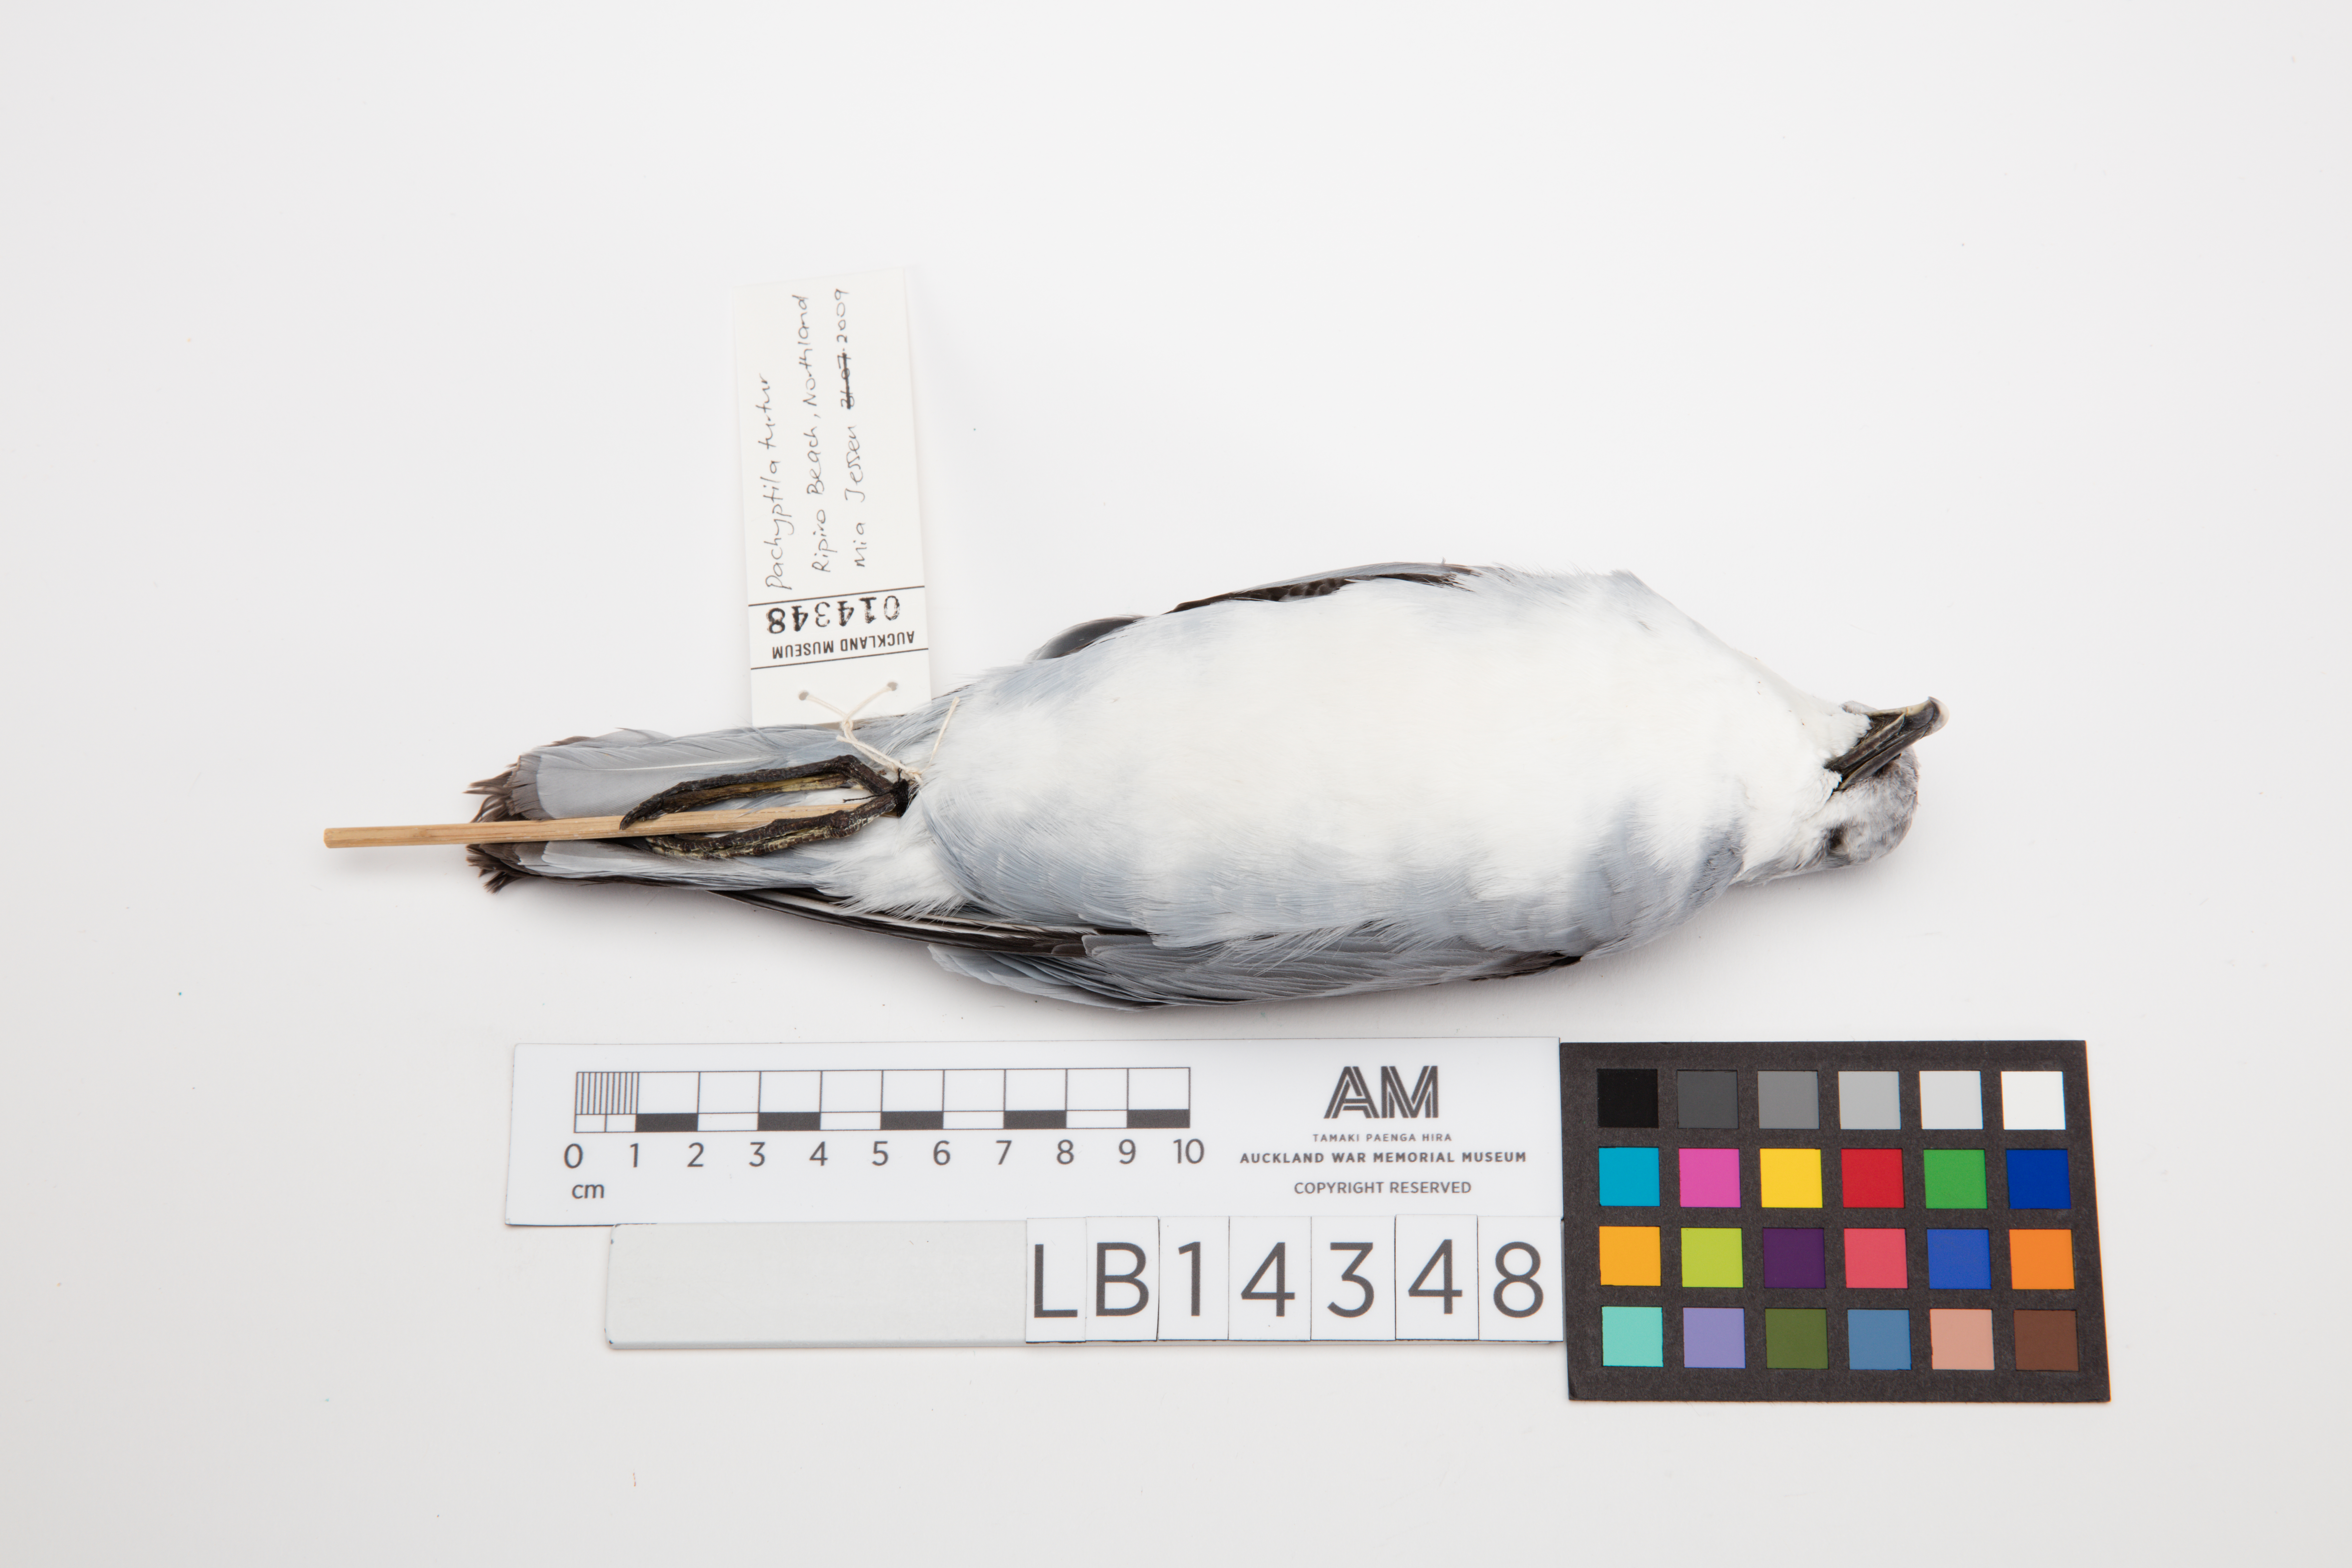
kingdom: Animalia
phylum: Chordata
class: Aves
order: Procellariiformes
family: Procellariidae
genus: Pachyptila
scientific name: Pachyptila turtur
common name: Fairy prion
